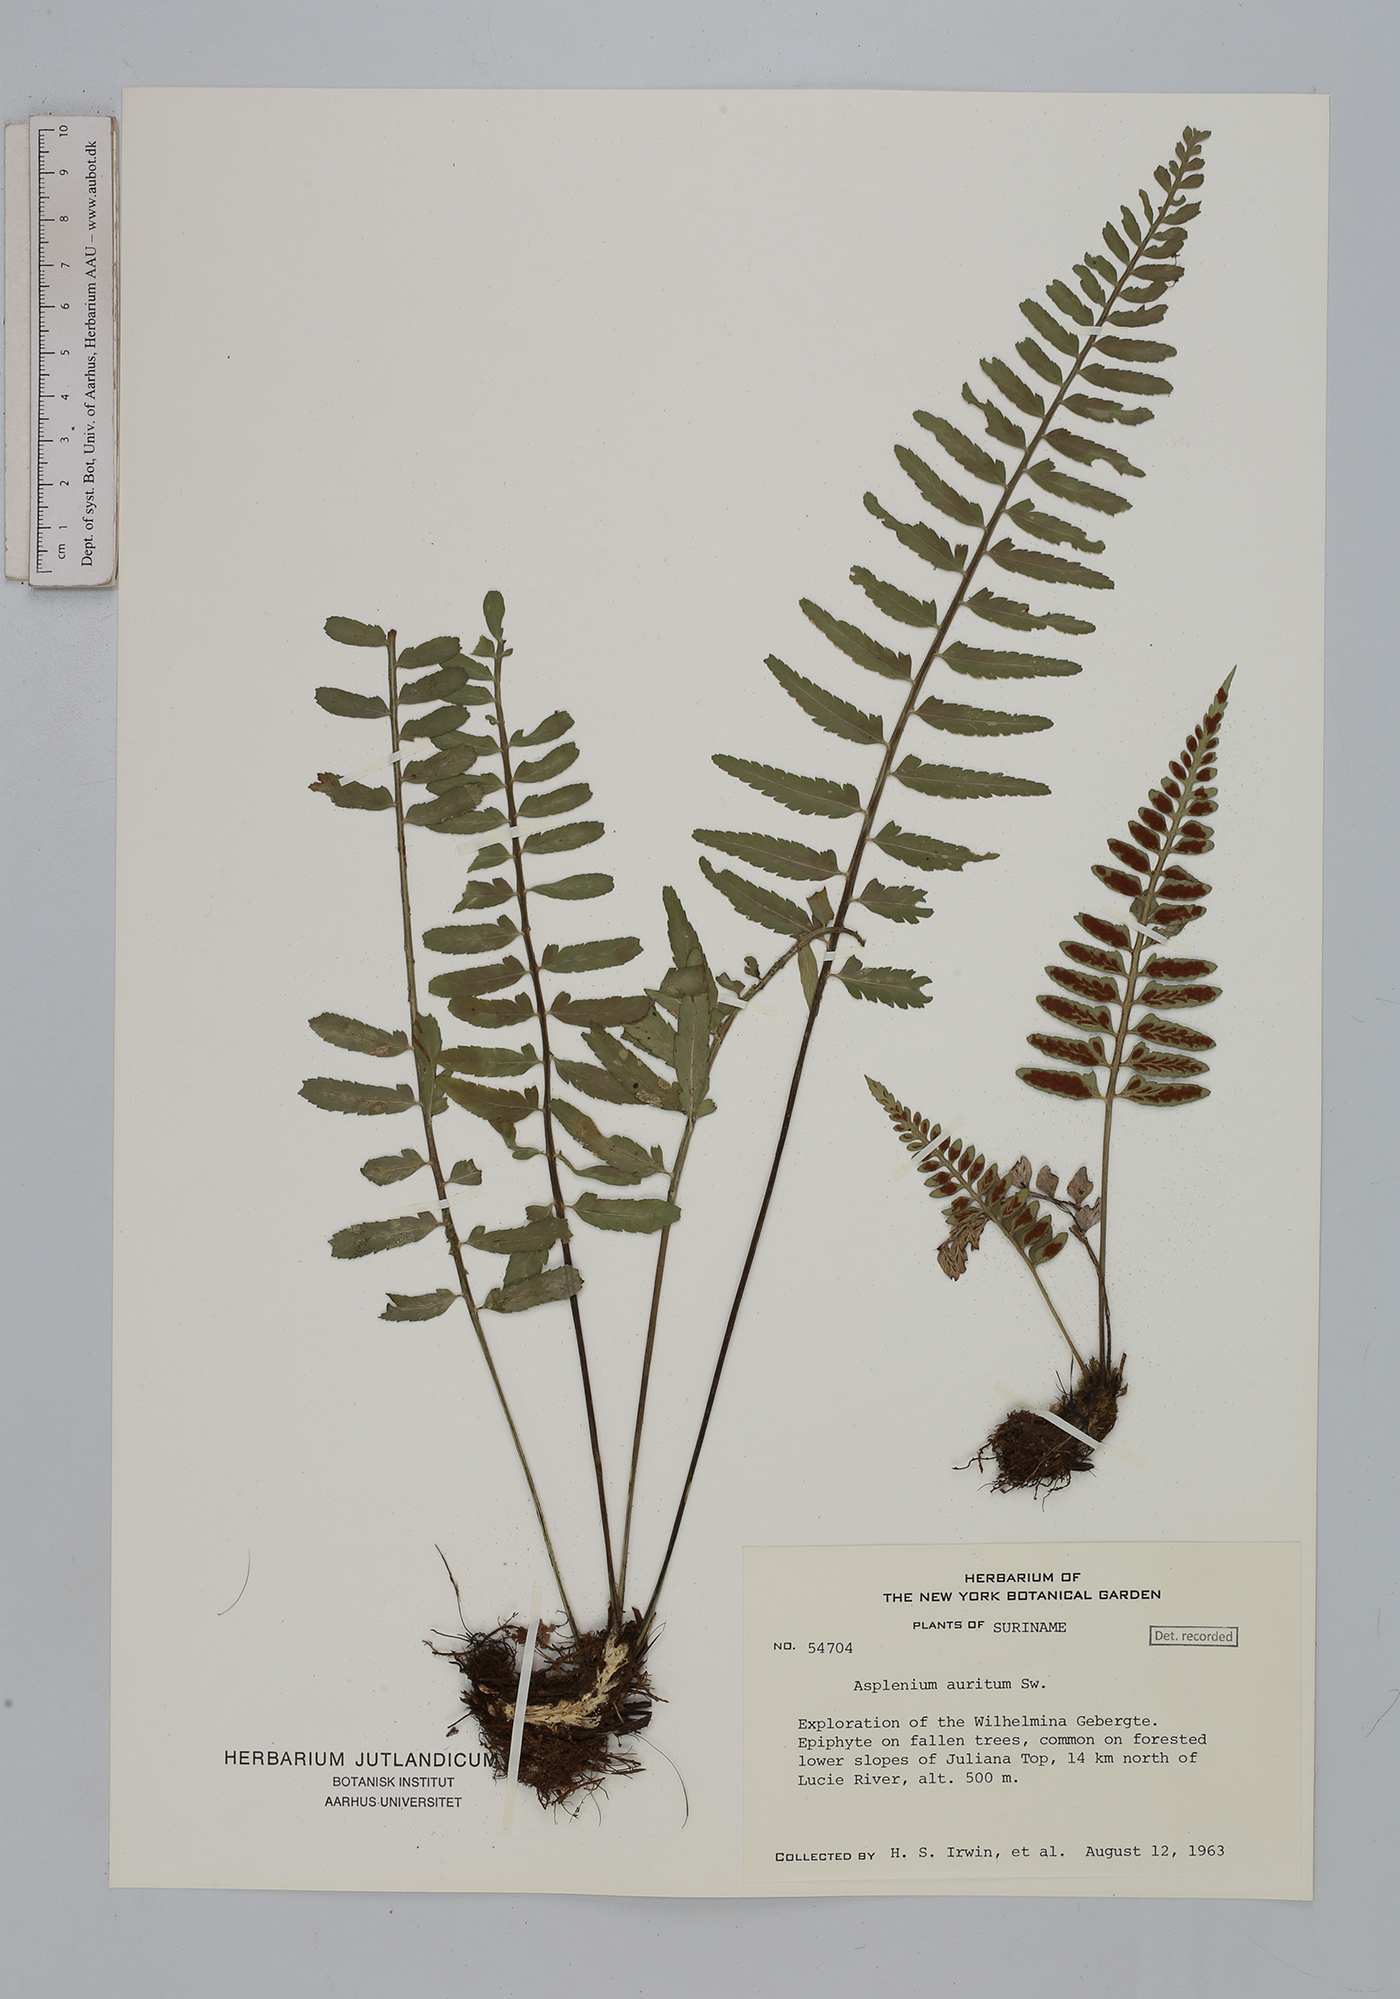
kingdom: Plantae
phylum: Tracheophyta
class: Polypodiopsida
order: Polypodiales
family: Aspleniaceae
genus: Asplenium
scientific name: Asplenium auritum
